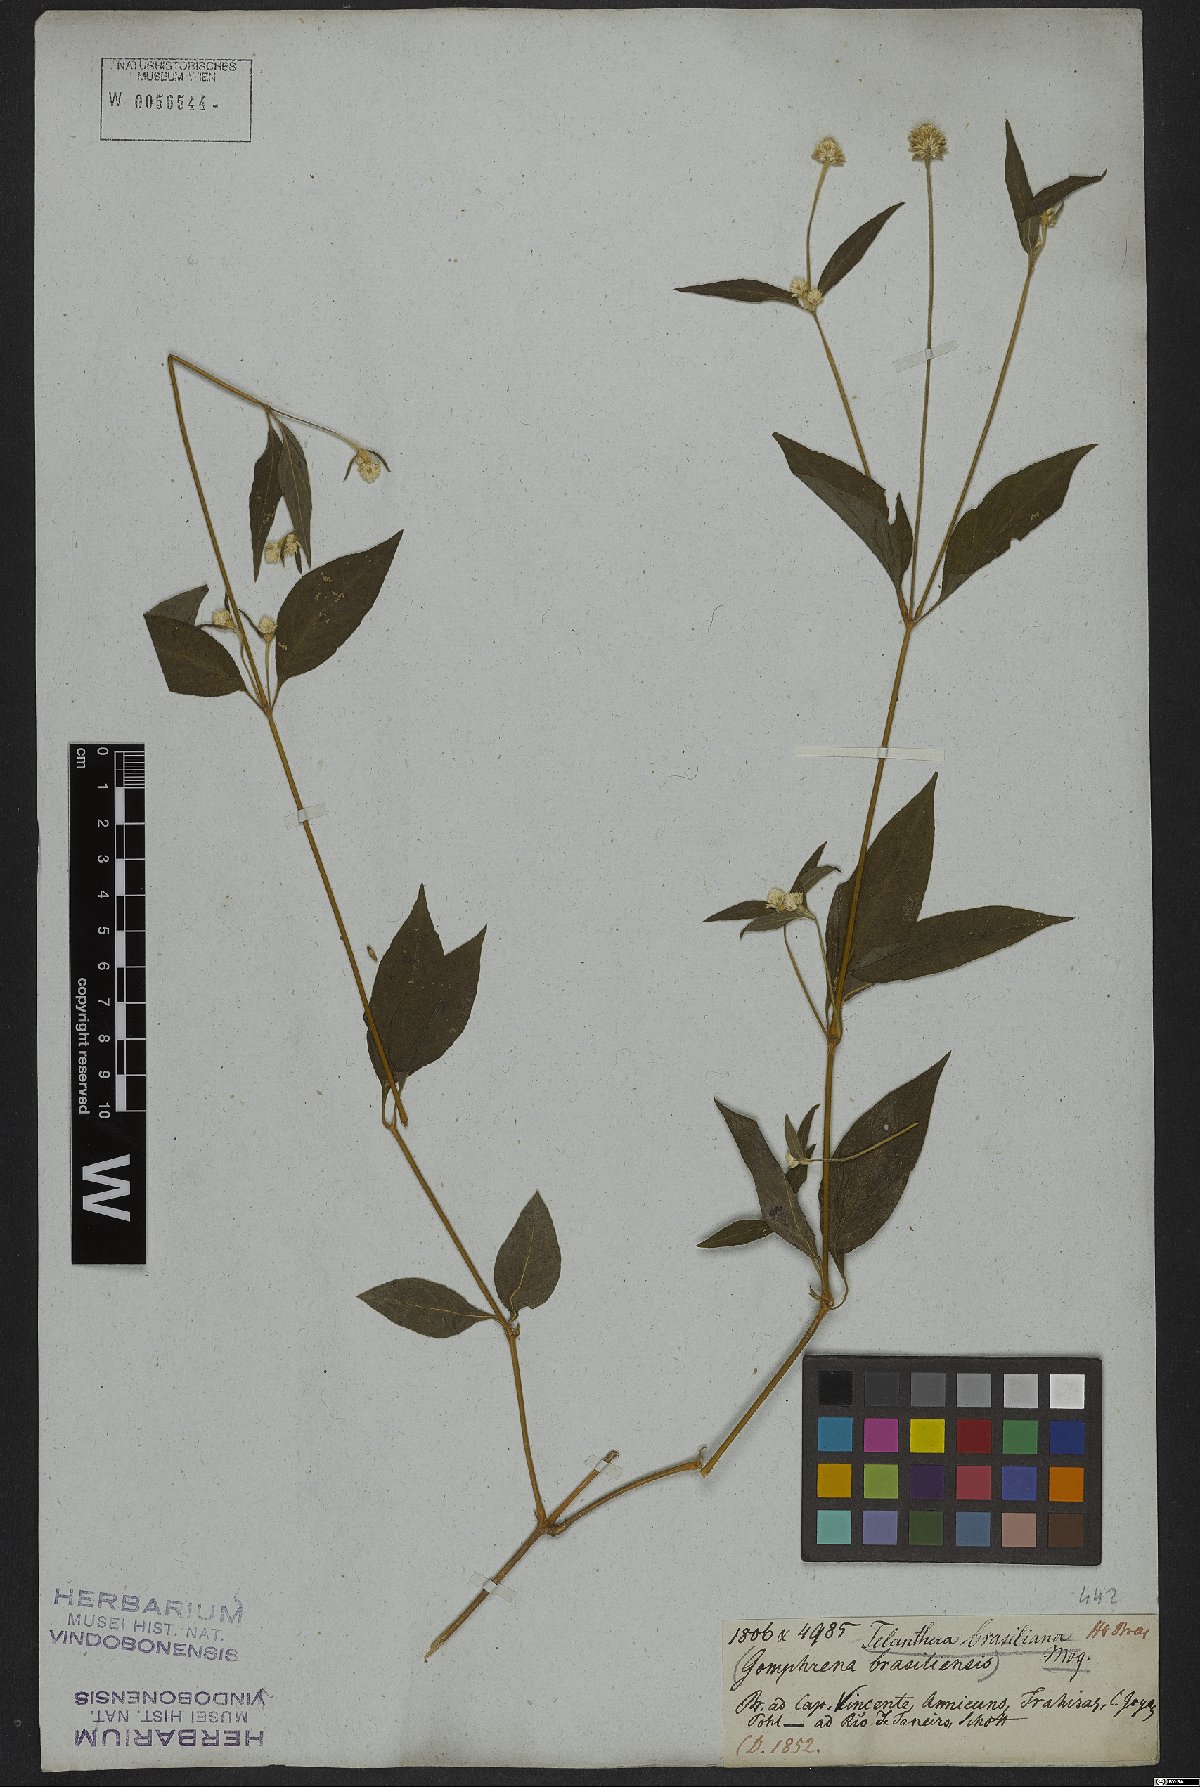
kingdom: Plantae
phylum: Tracheophyta
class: Magnoliopsida
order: Caryophyllales
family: Amaranthaceae
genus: Alternanthera
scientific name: Alternanthera brasiliana
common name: Brazilian joyweed
